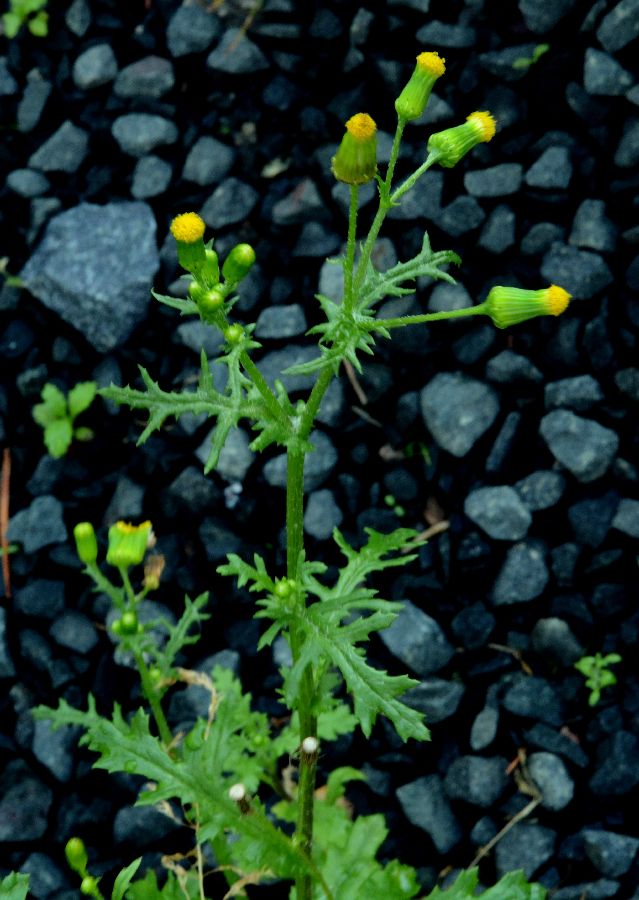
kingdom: Plantae
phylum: Tracheophyta
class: Magnoliopsida
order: Asterales
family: Asteraceae
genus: Senecio
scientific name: Senecio vulgaris
